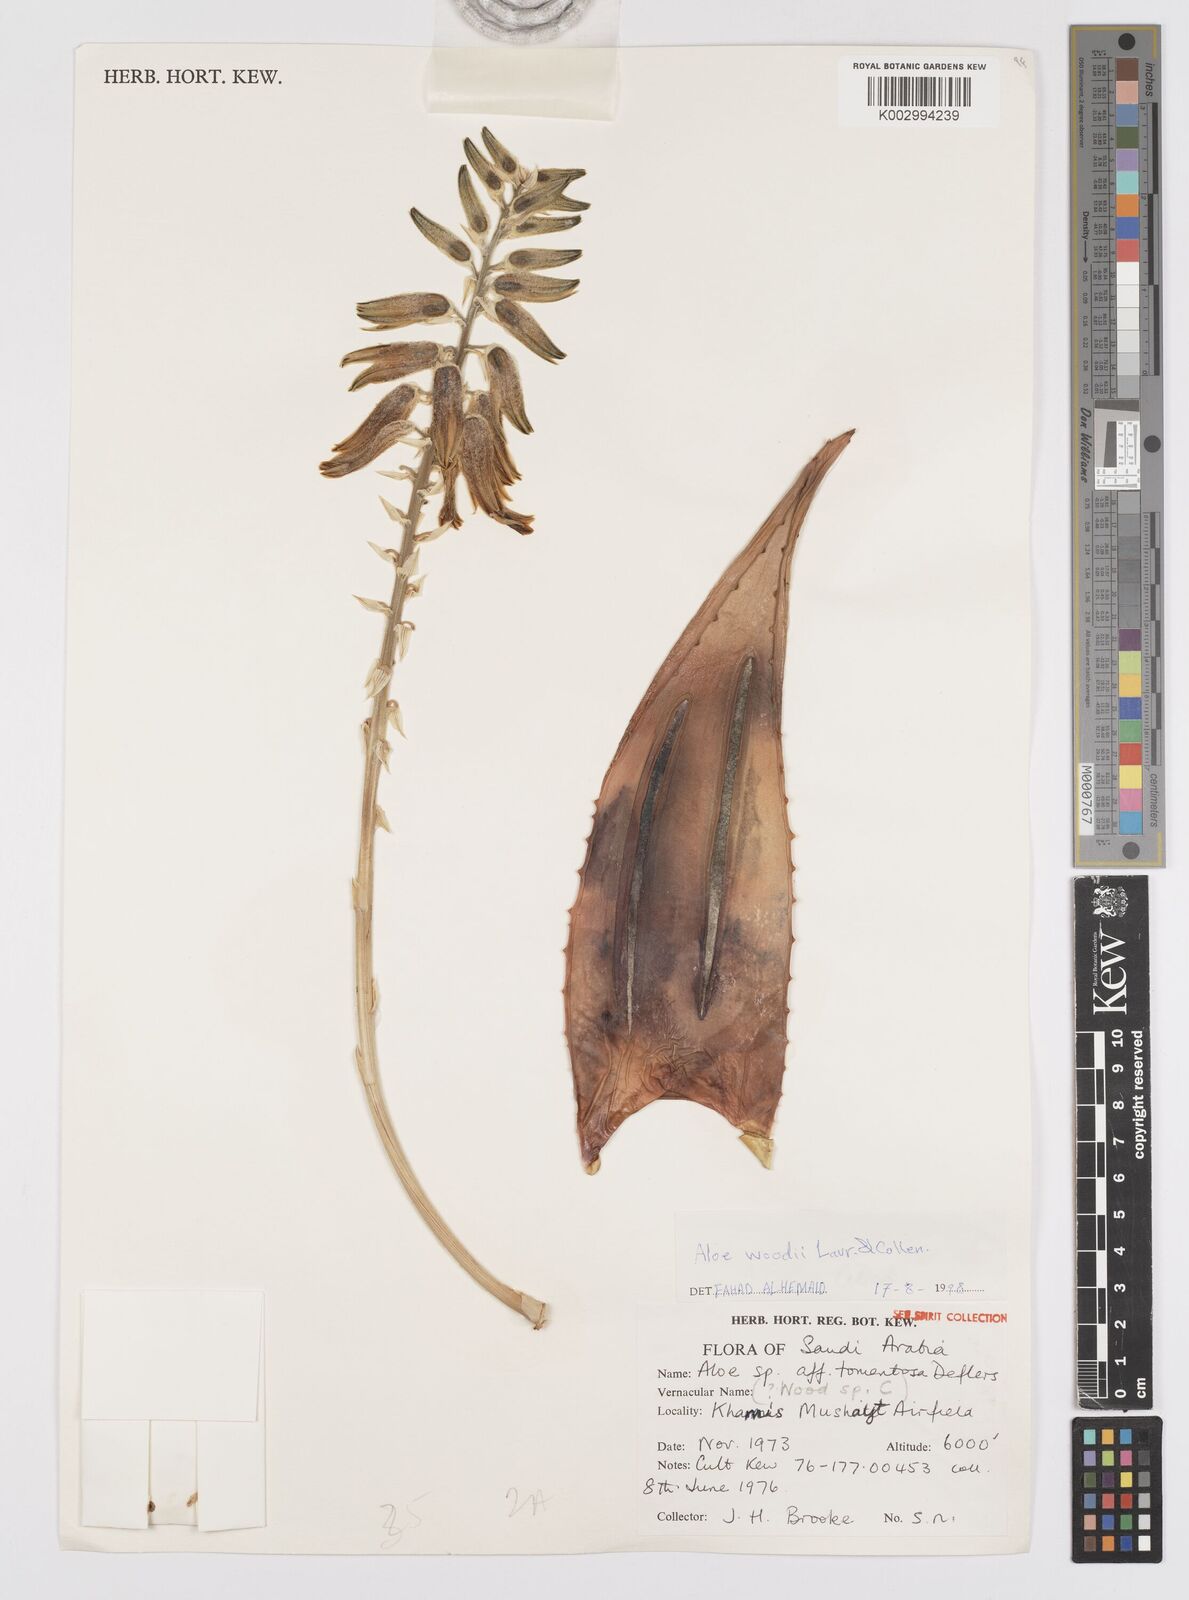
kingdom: Plantae
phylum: Tracheophyta
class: Liliopsida
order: Asparagales
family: Asphodelaceae
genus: Aloe
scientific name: Aloe woodii
